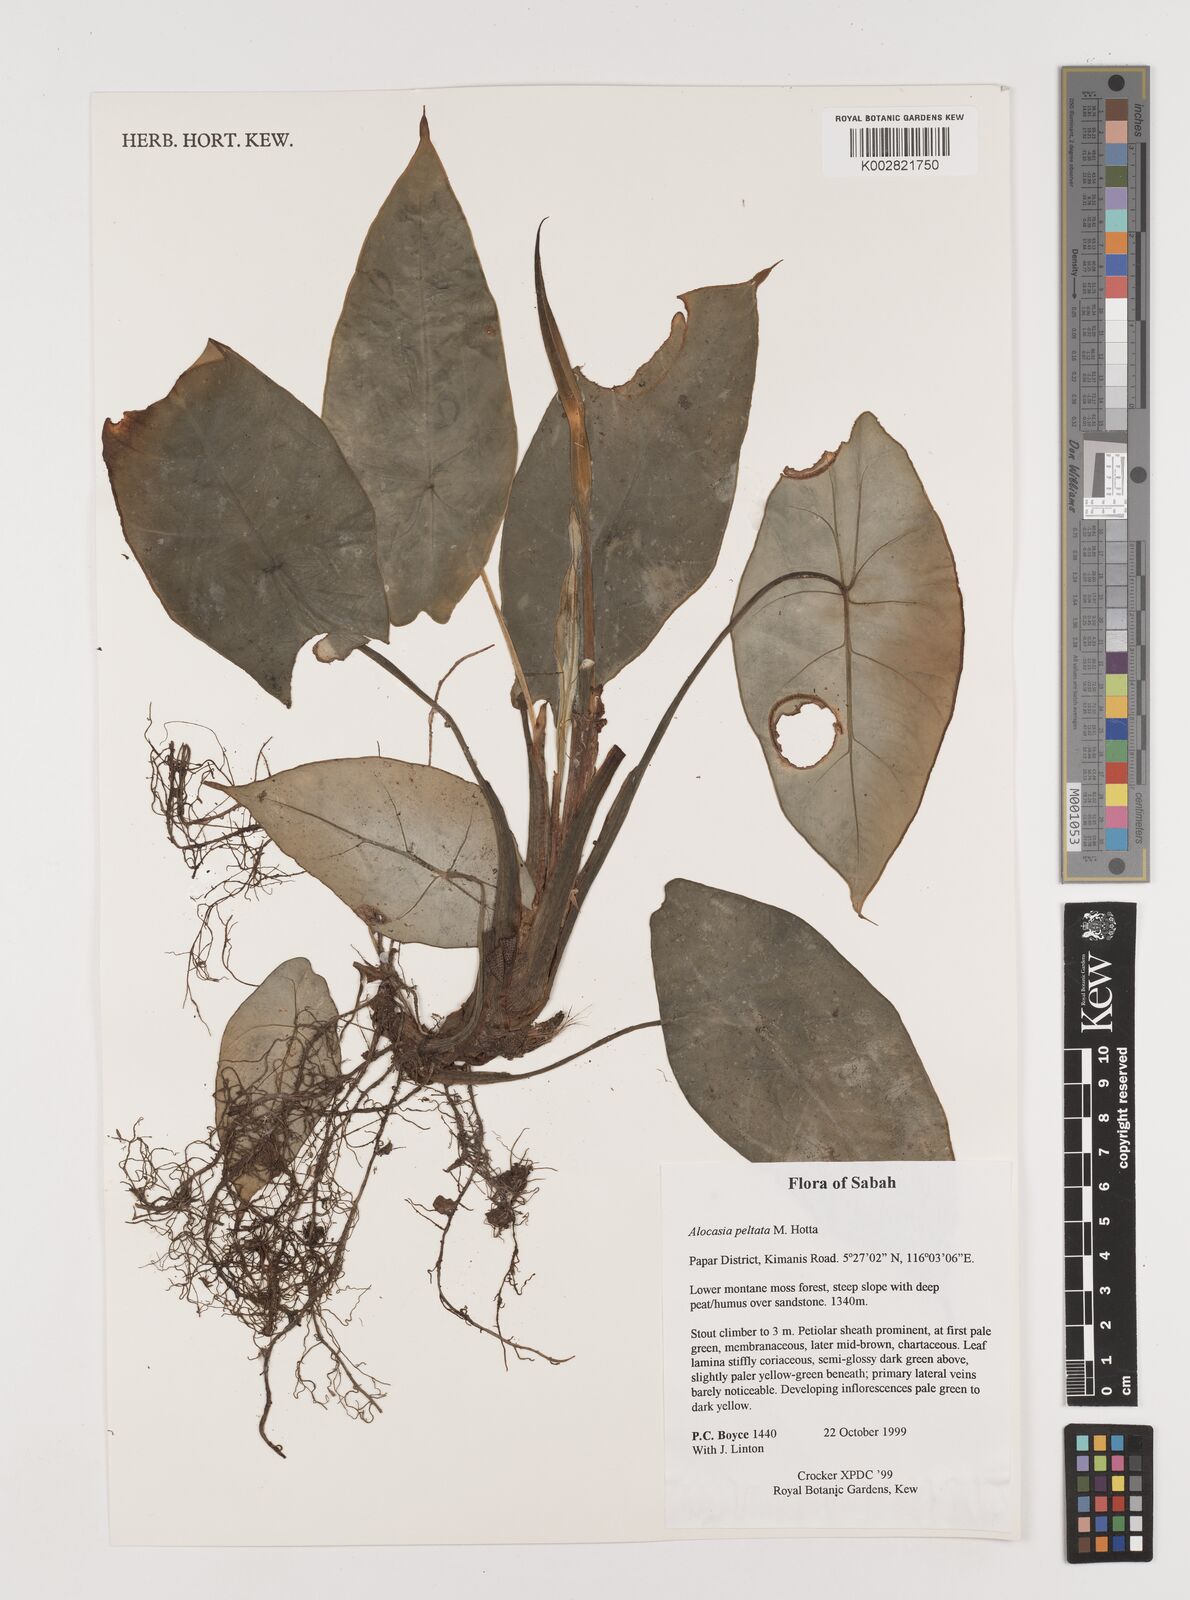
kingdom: Plantae
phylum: Tracheophyta
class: Liliopsida
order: Alismatales
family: Araceae
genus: Alocasia
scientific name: Alocasia peltata
